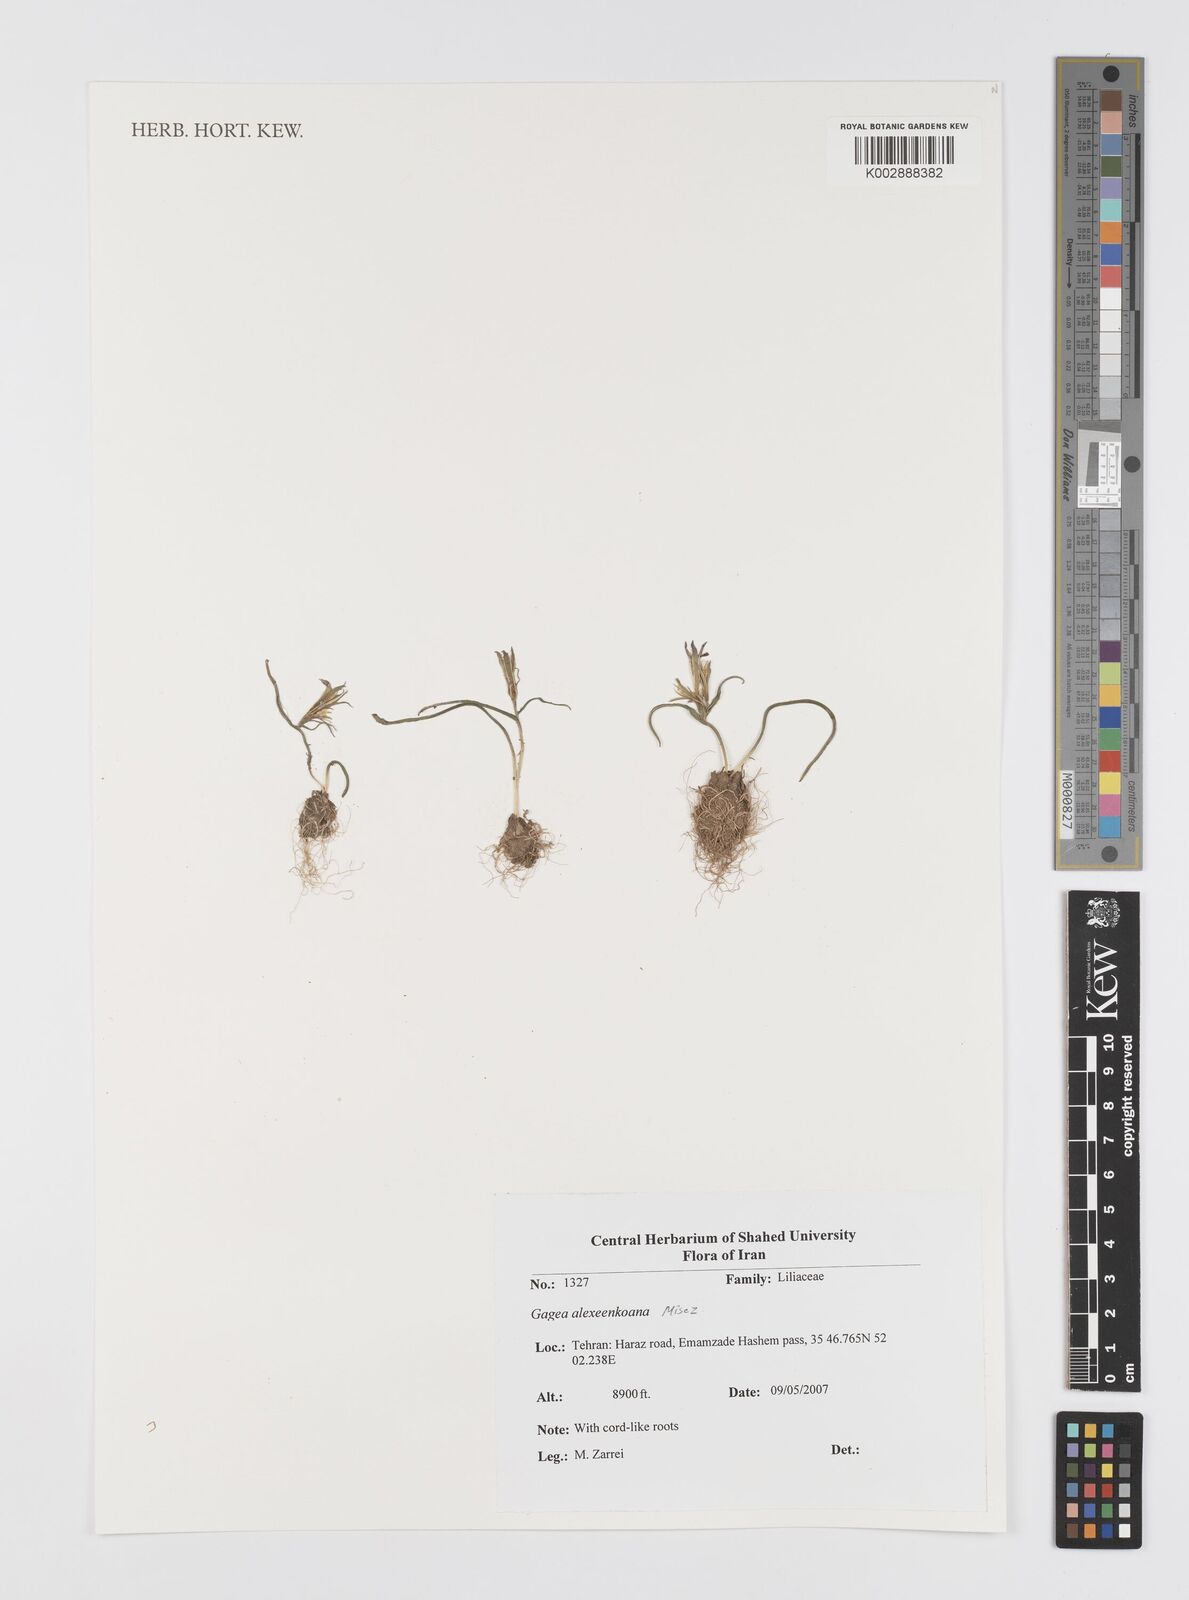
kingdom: Plantae
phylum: Tracheophyta
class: Liliopsida
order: Liliales
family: Liliaceae
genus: Gagea
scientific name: Gagea alexeenkoana
